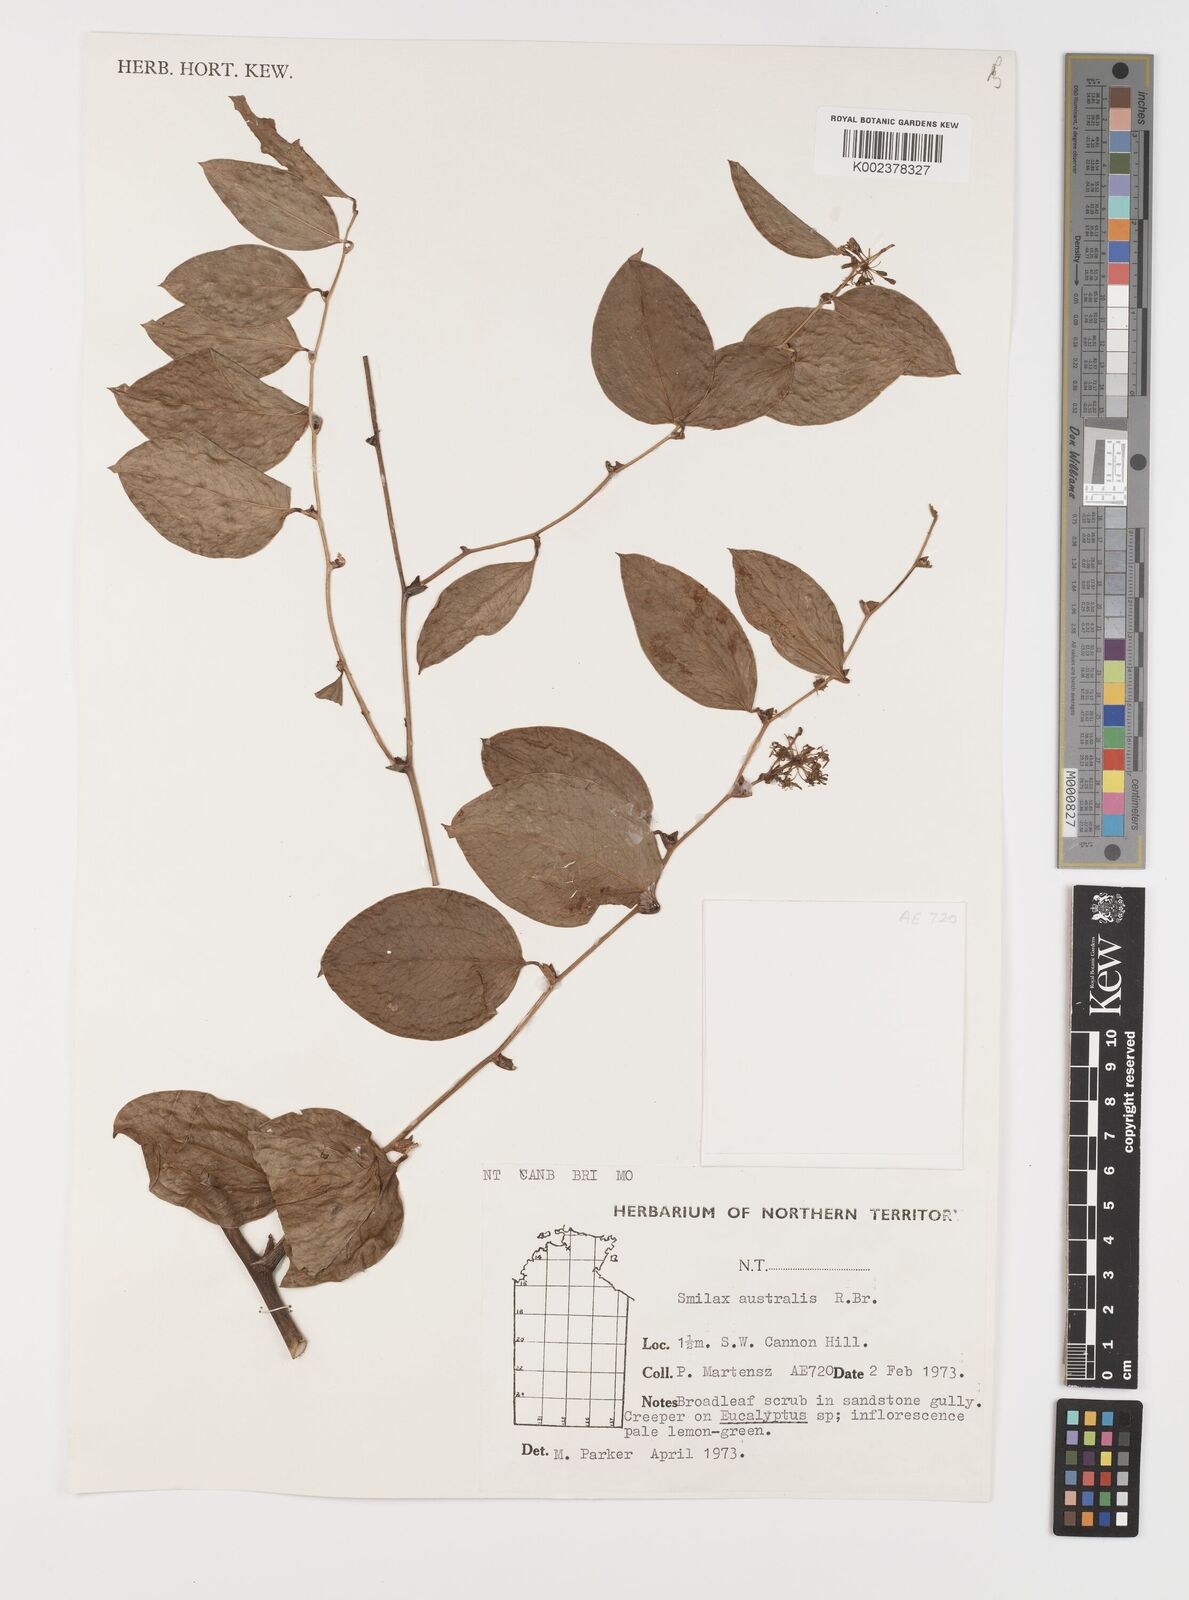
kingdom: Plantae
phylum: Tracheophyta
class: Liliopsida
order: Liliales
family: Smilacaceae
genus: Smilax
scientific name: Smilax australis
